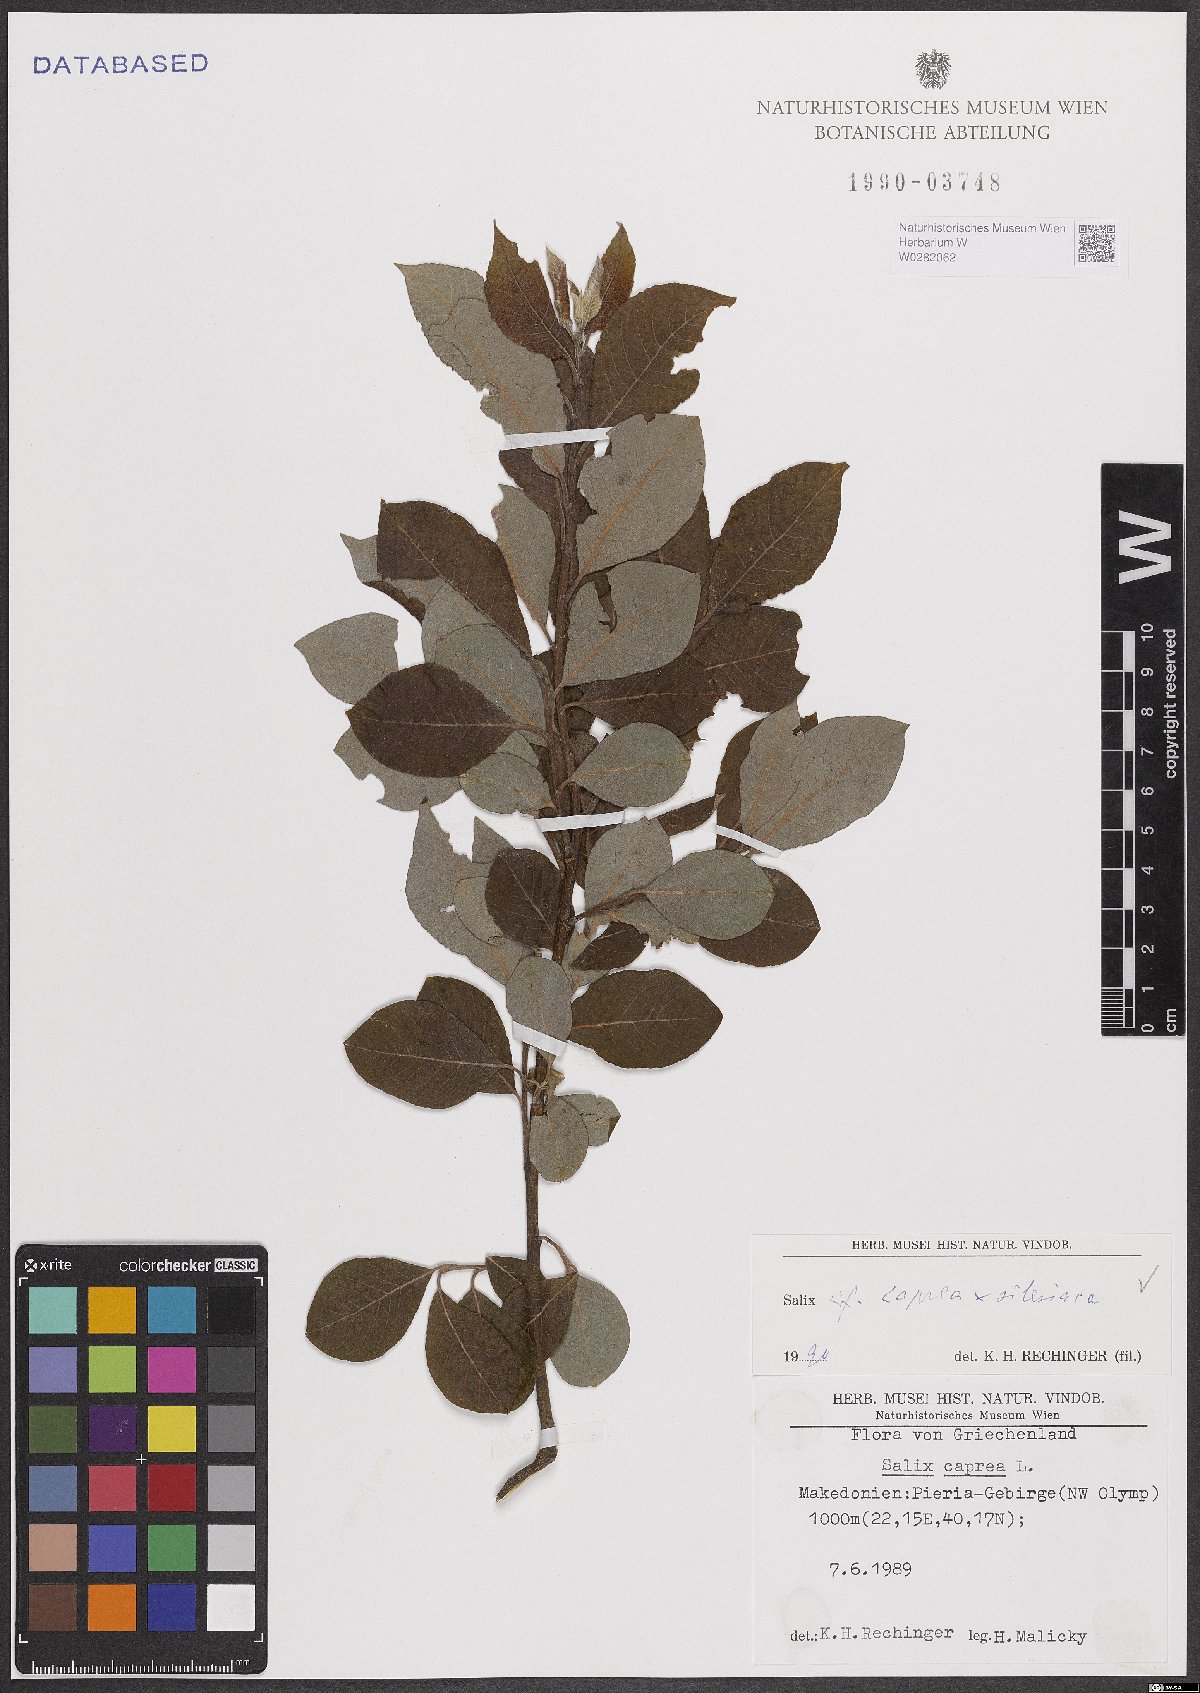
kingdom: Plantae
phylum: Tracheophyta
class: Magnoliopsida
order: Malpighiales
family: Salicaceae
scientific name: Salicaceae
